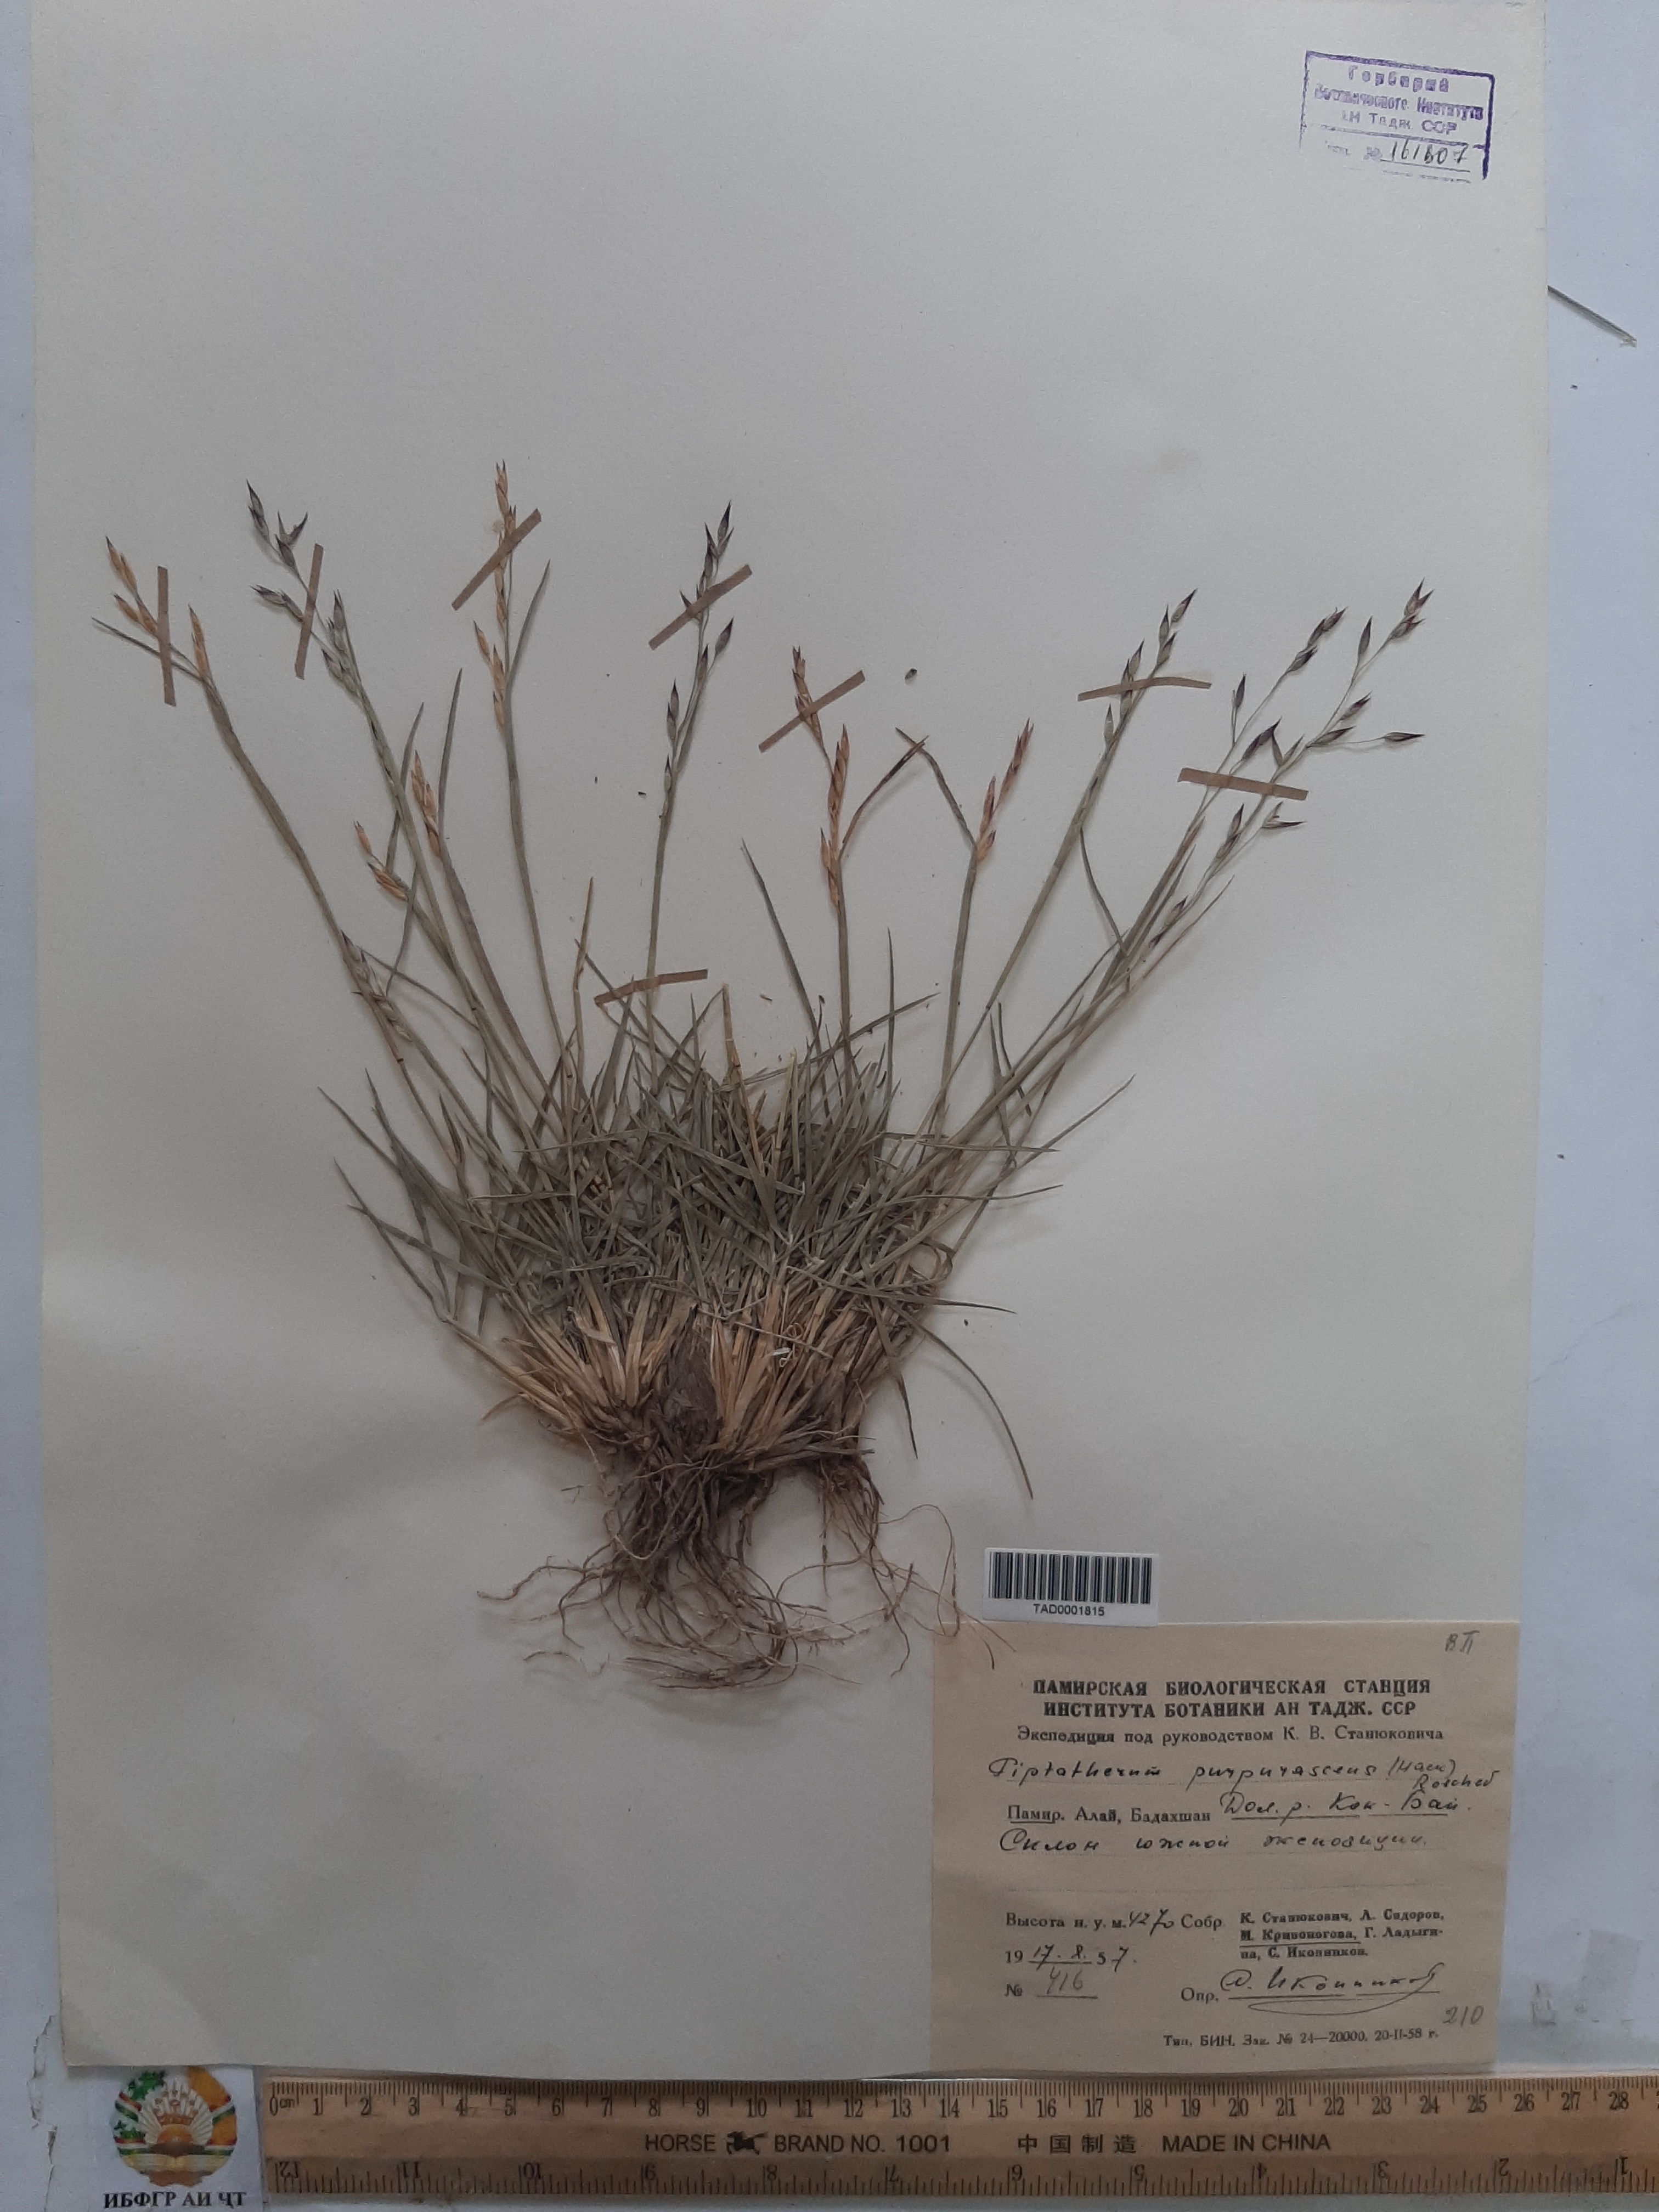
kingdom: Plantae
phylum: Tracheophyta
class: Liliopsida
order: Poales
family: Poaceae
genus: Piptatherum
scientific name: Piptatherum purpurascens
